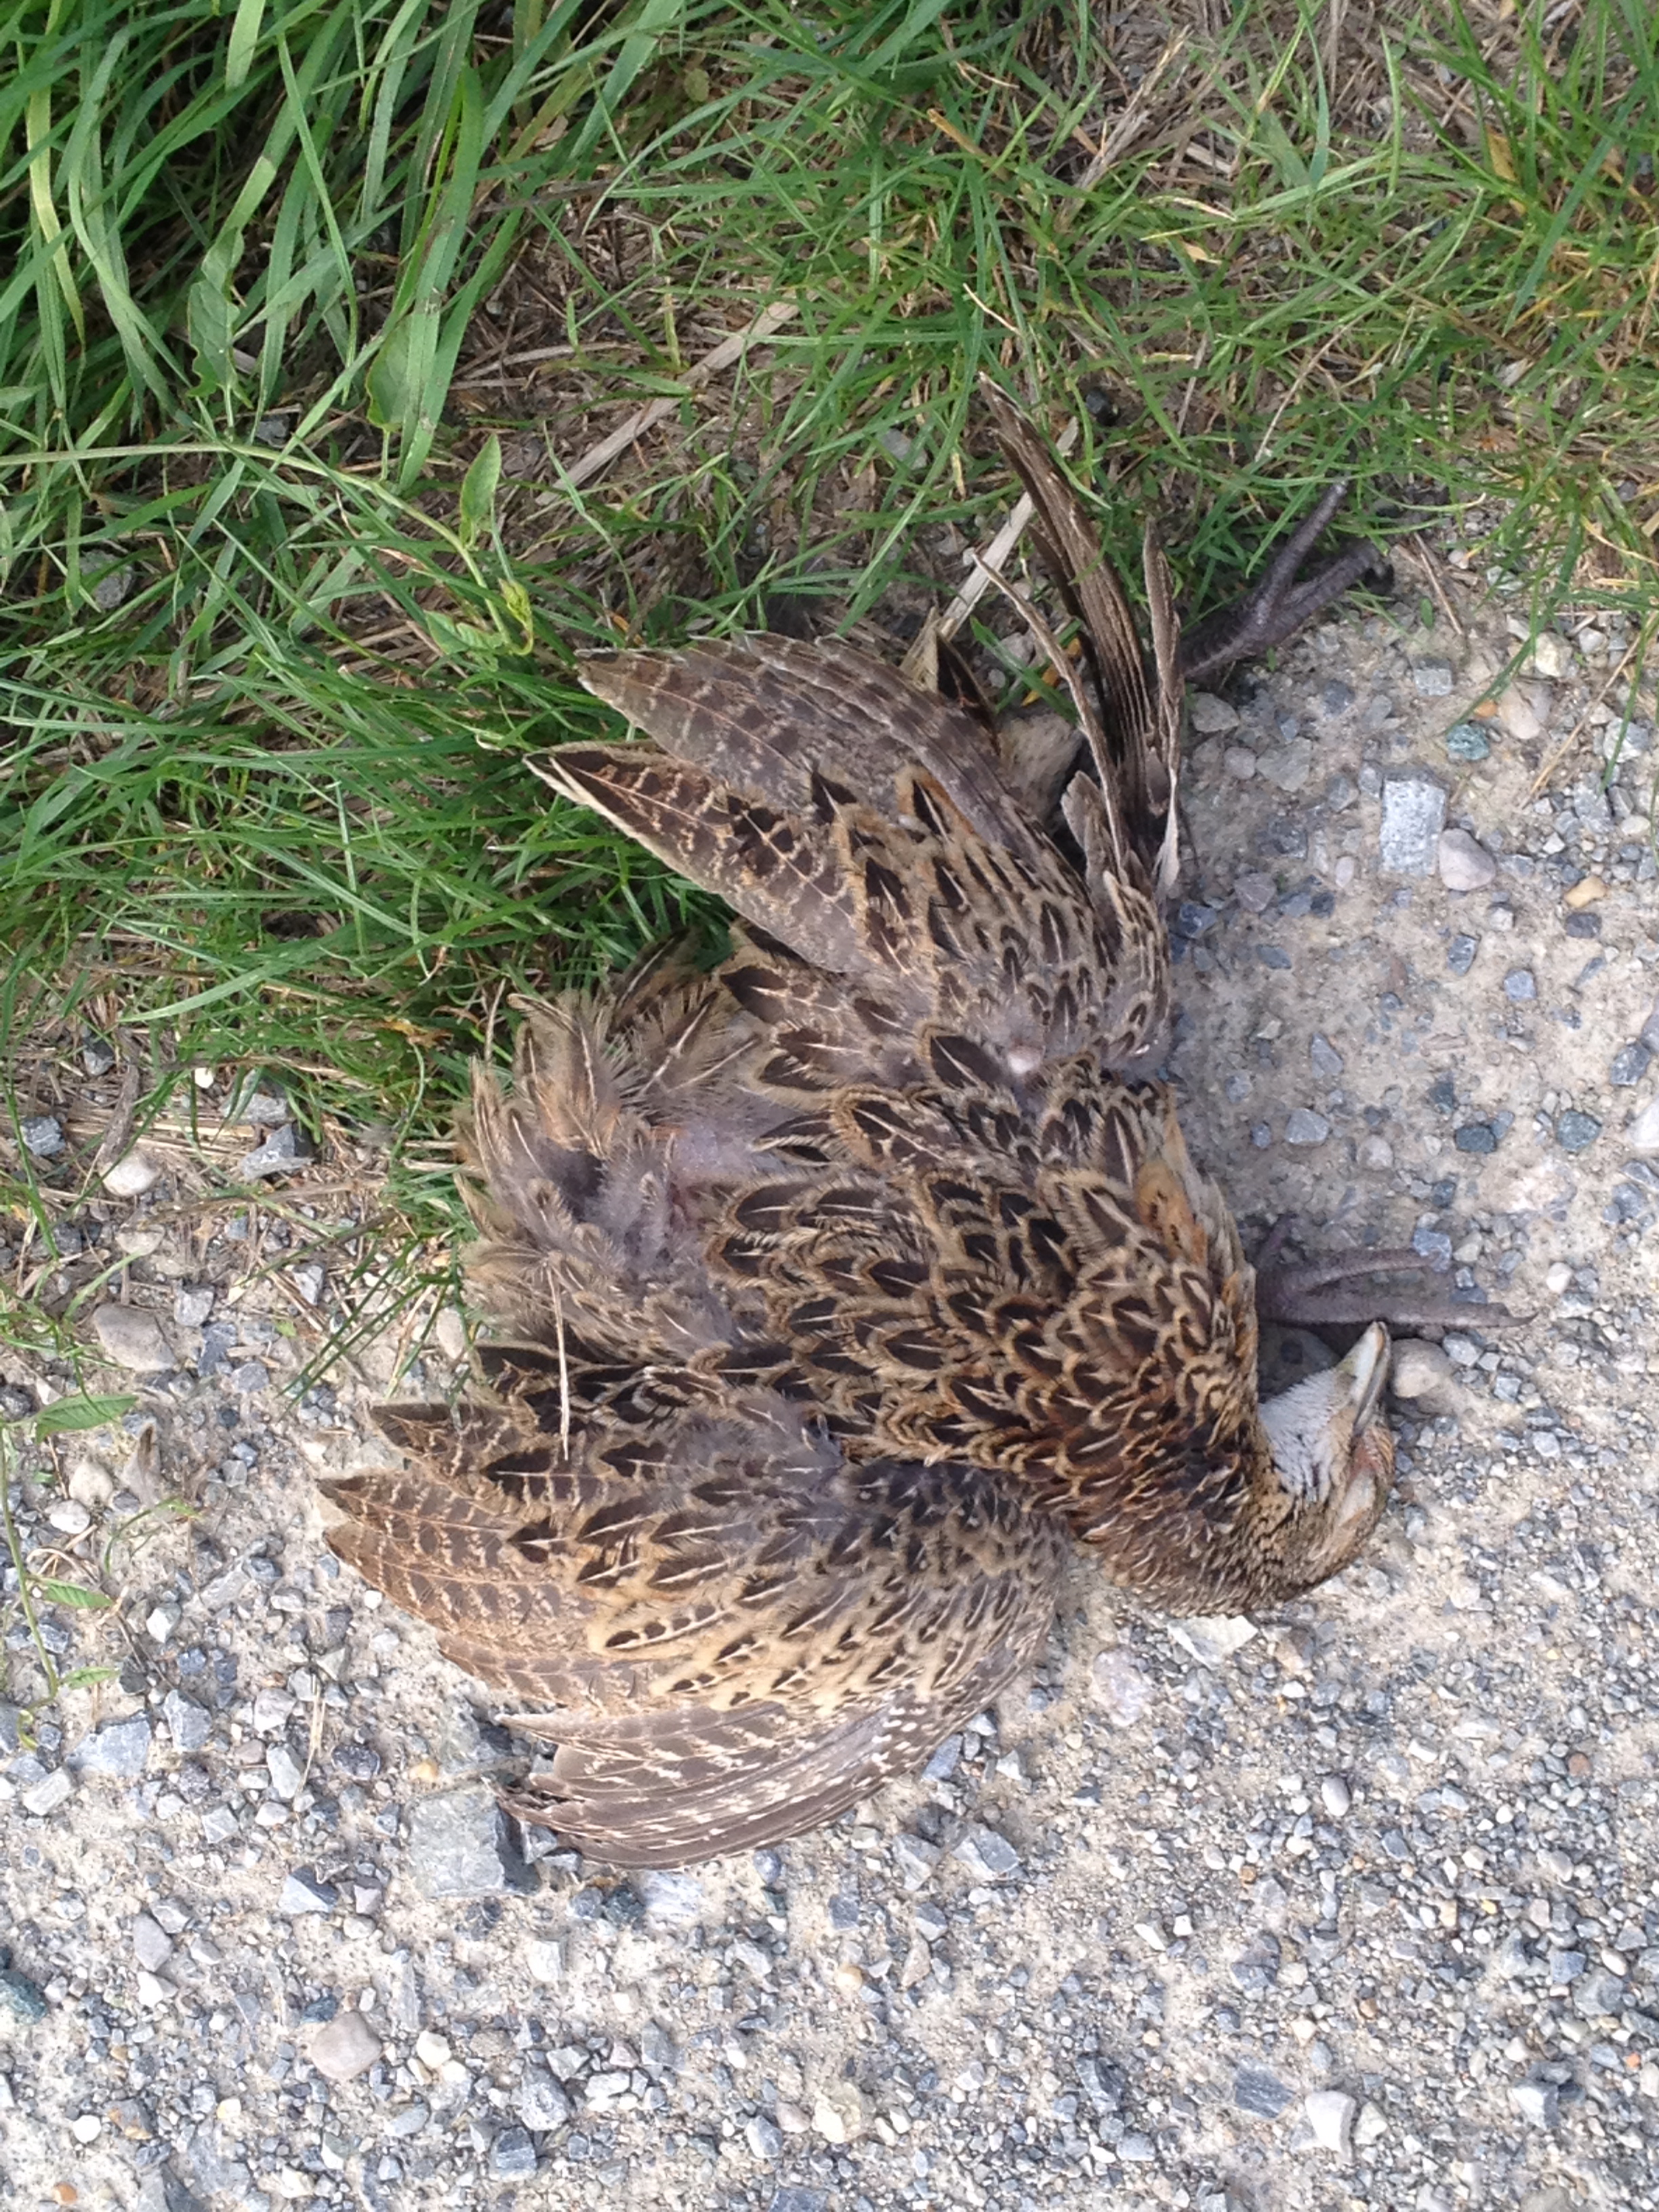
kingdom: Animalia
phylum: Chordata
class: Aves
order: Galliformes
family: Phasianidae
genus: Phasianus
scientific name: Phasianus colchicus
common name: Common pheasant
